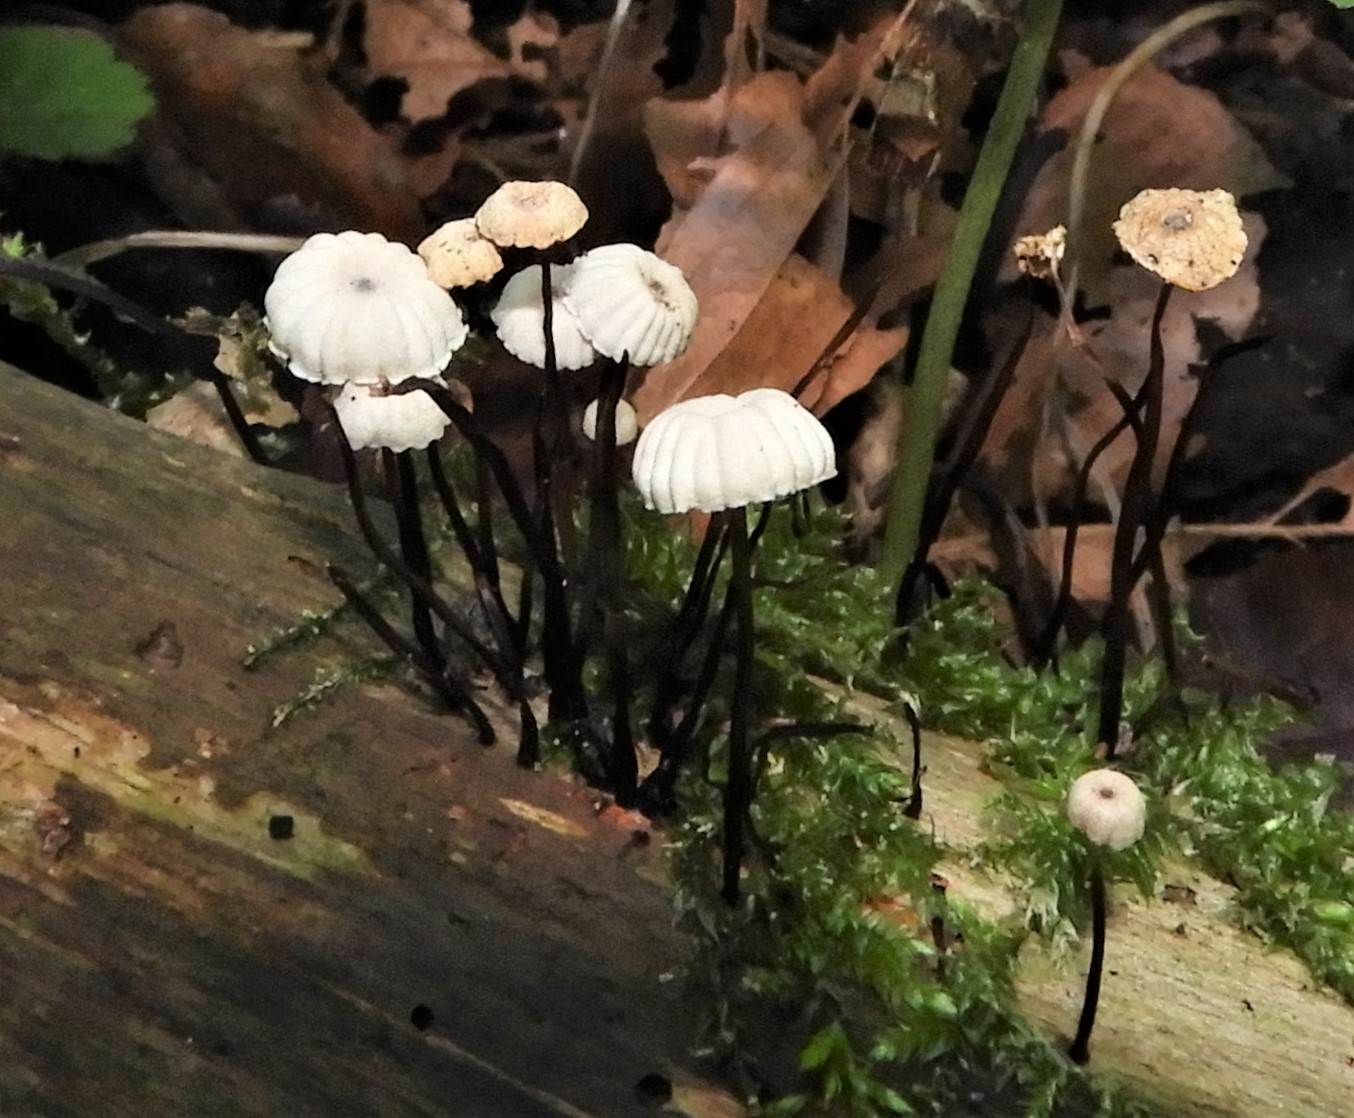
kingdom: Fungi
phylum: Basidiomycota
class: Agaricomycetes
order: Agaricales
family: Marasmiaceae
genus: Marasmius
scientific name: Marasmius rotula
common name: hjul-bruskhat
